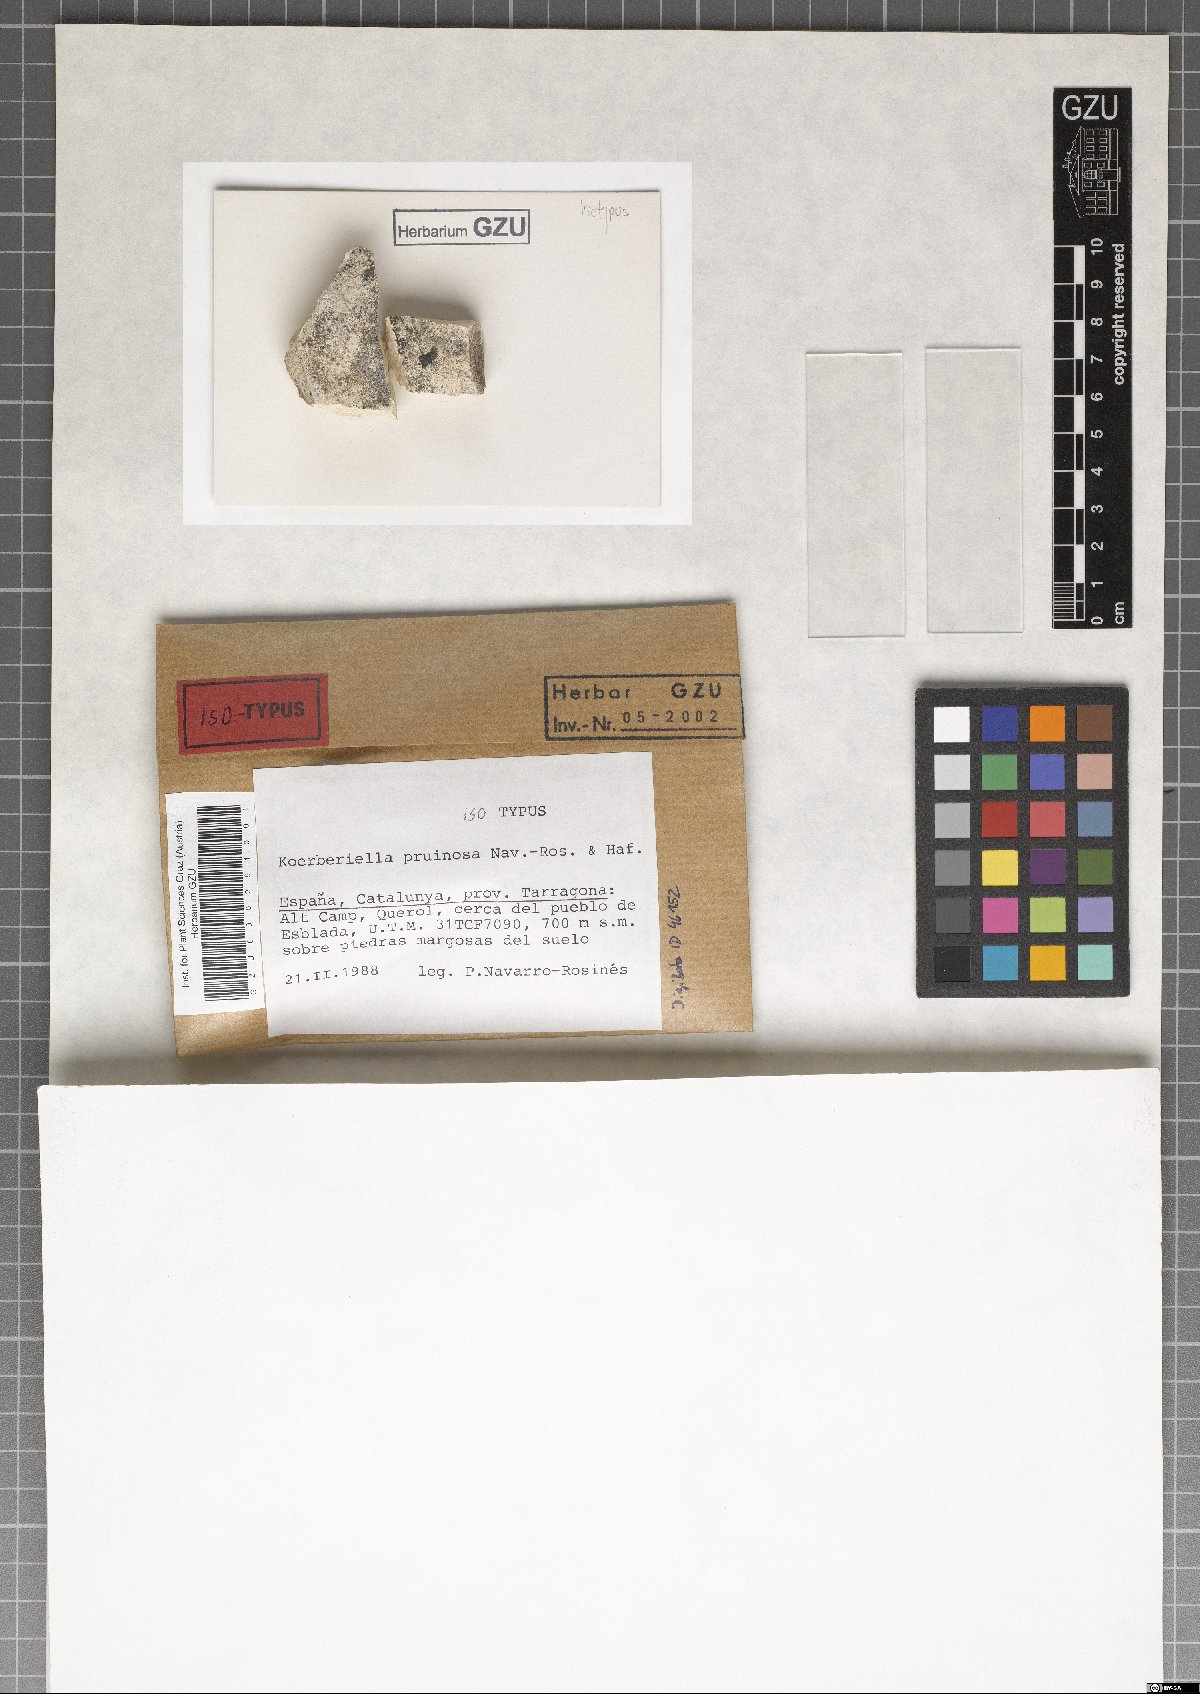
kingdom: Fungi
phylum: Ascomycota
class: Lecanoromycetes
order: Lecideales
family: Lecideaceae
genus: Koerberiella
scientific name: Koerberiella pruinosa
